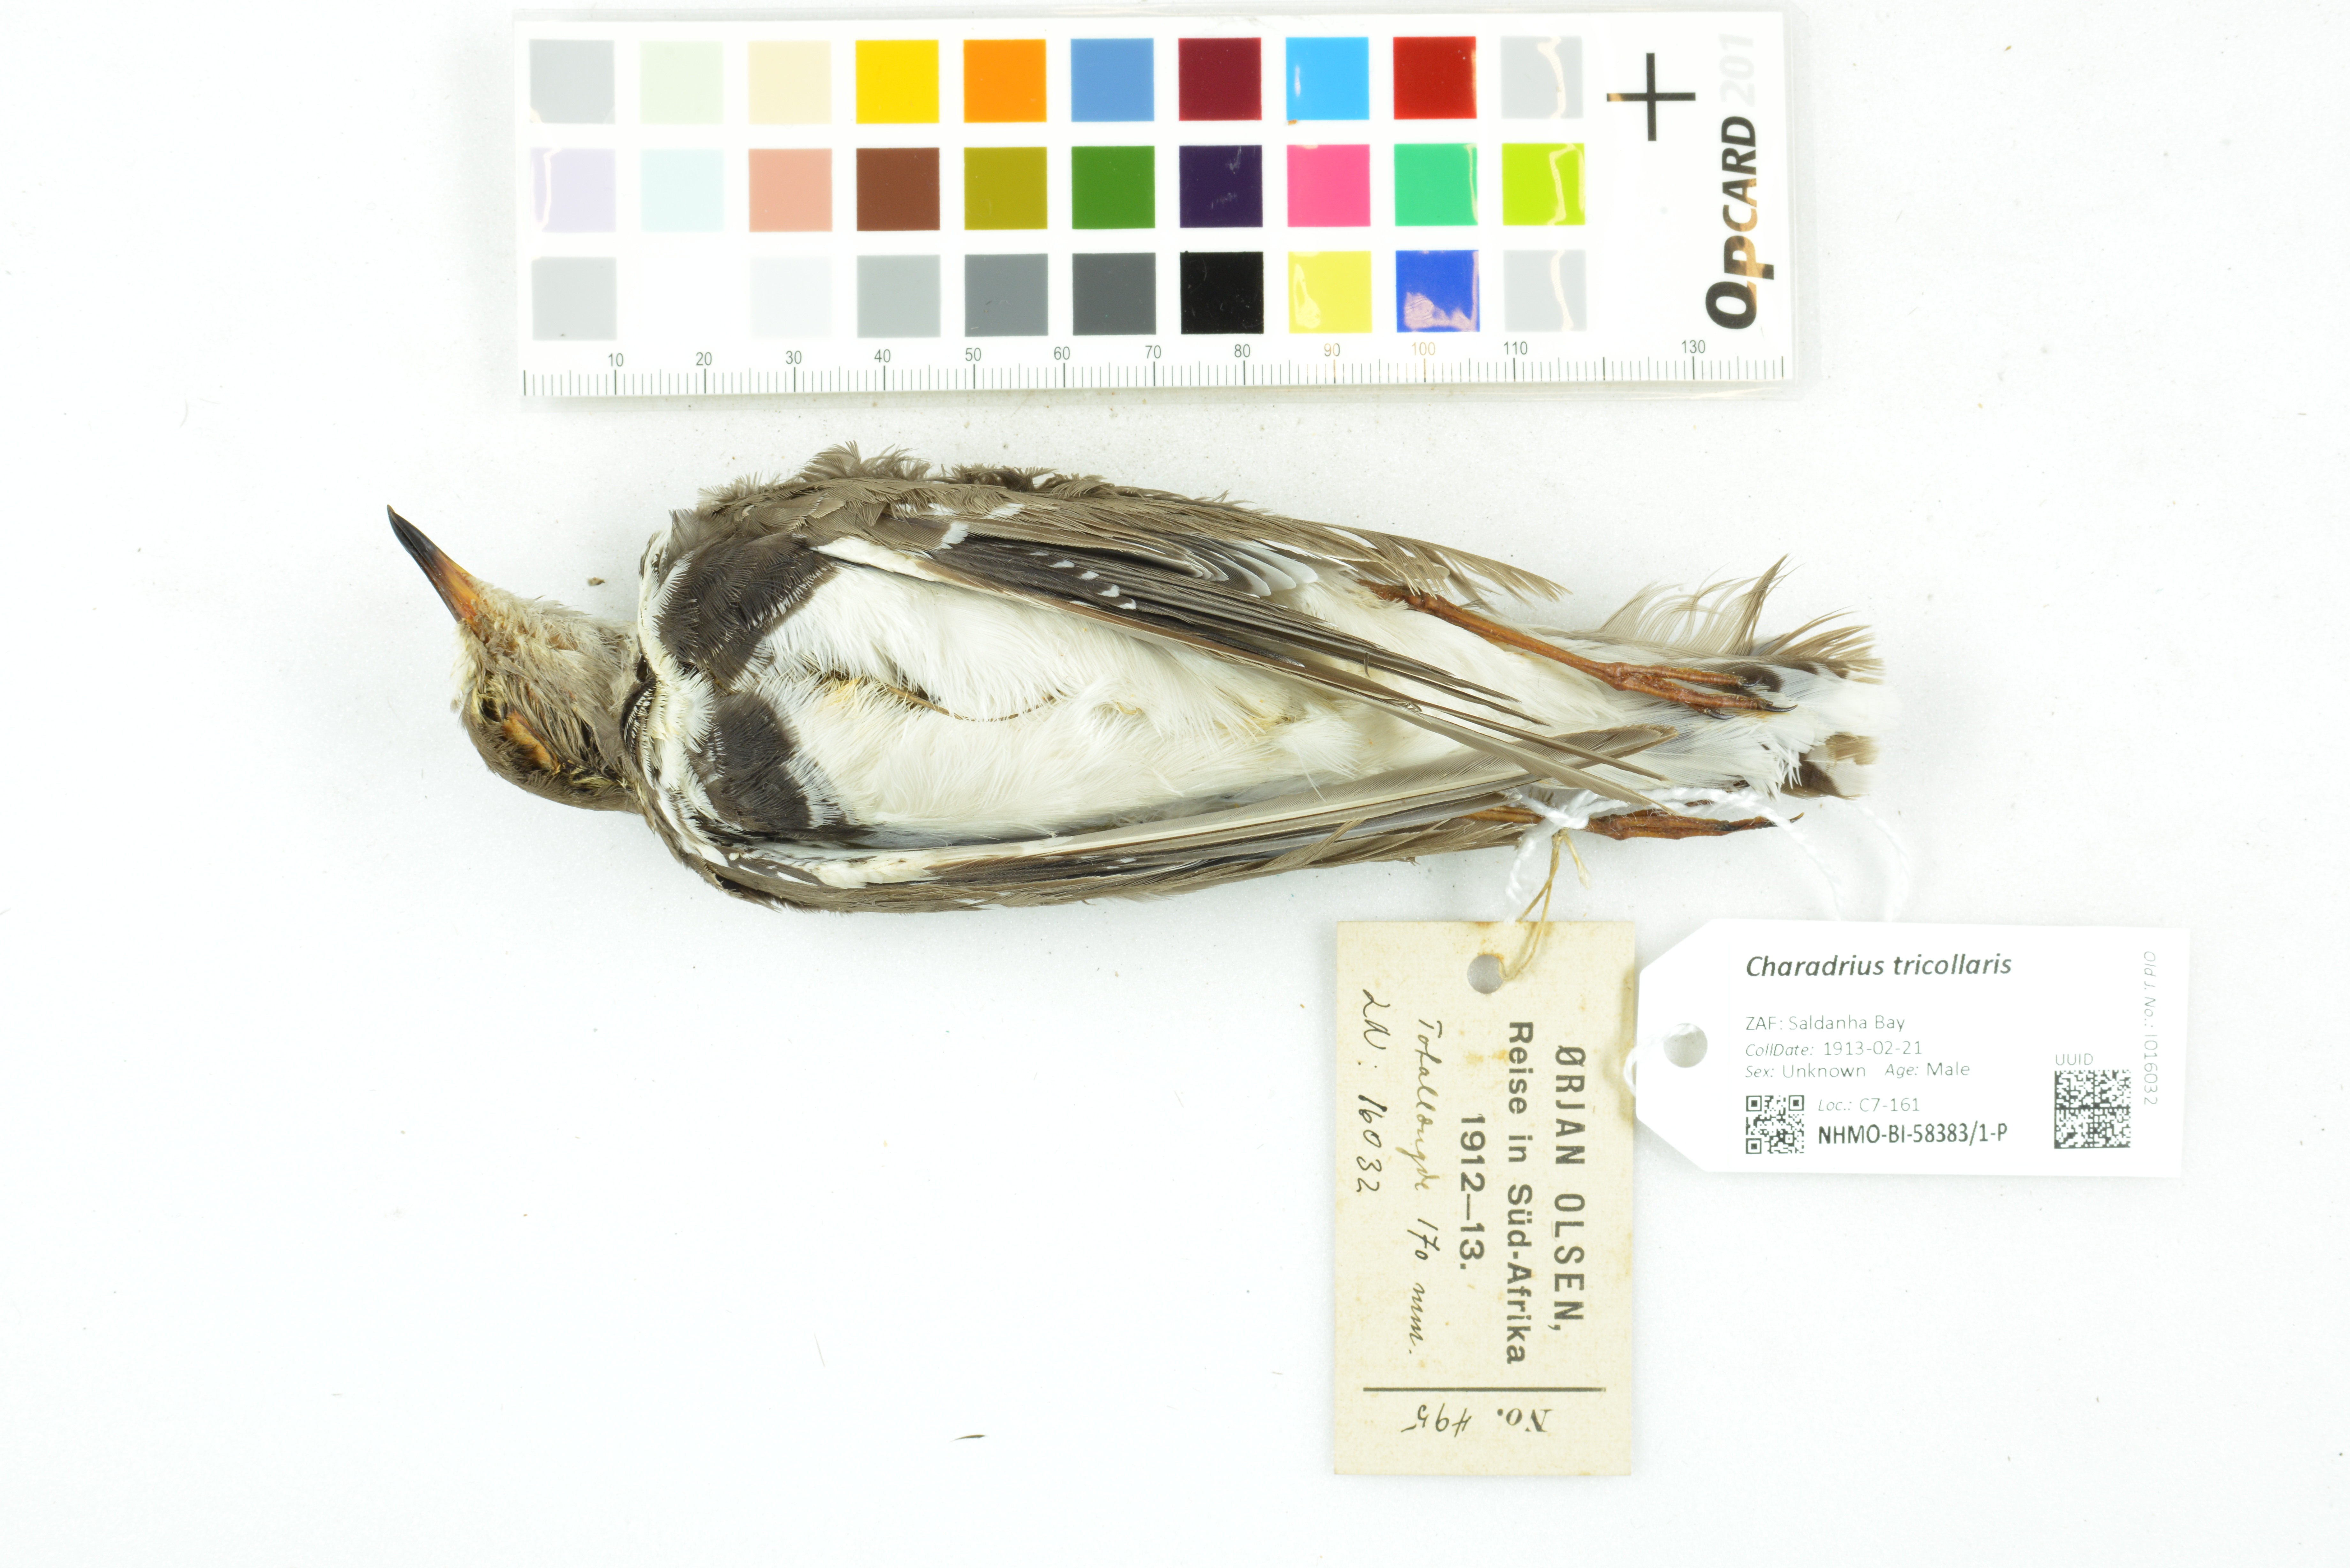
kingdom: Animalia
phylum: Chordata
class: Aves
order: Charadriiformes
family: Charadriidae
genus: Charadrius
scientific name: Charadrius tricollaris
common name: Three-banded plover
